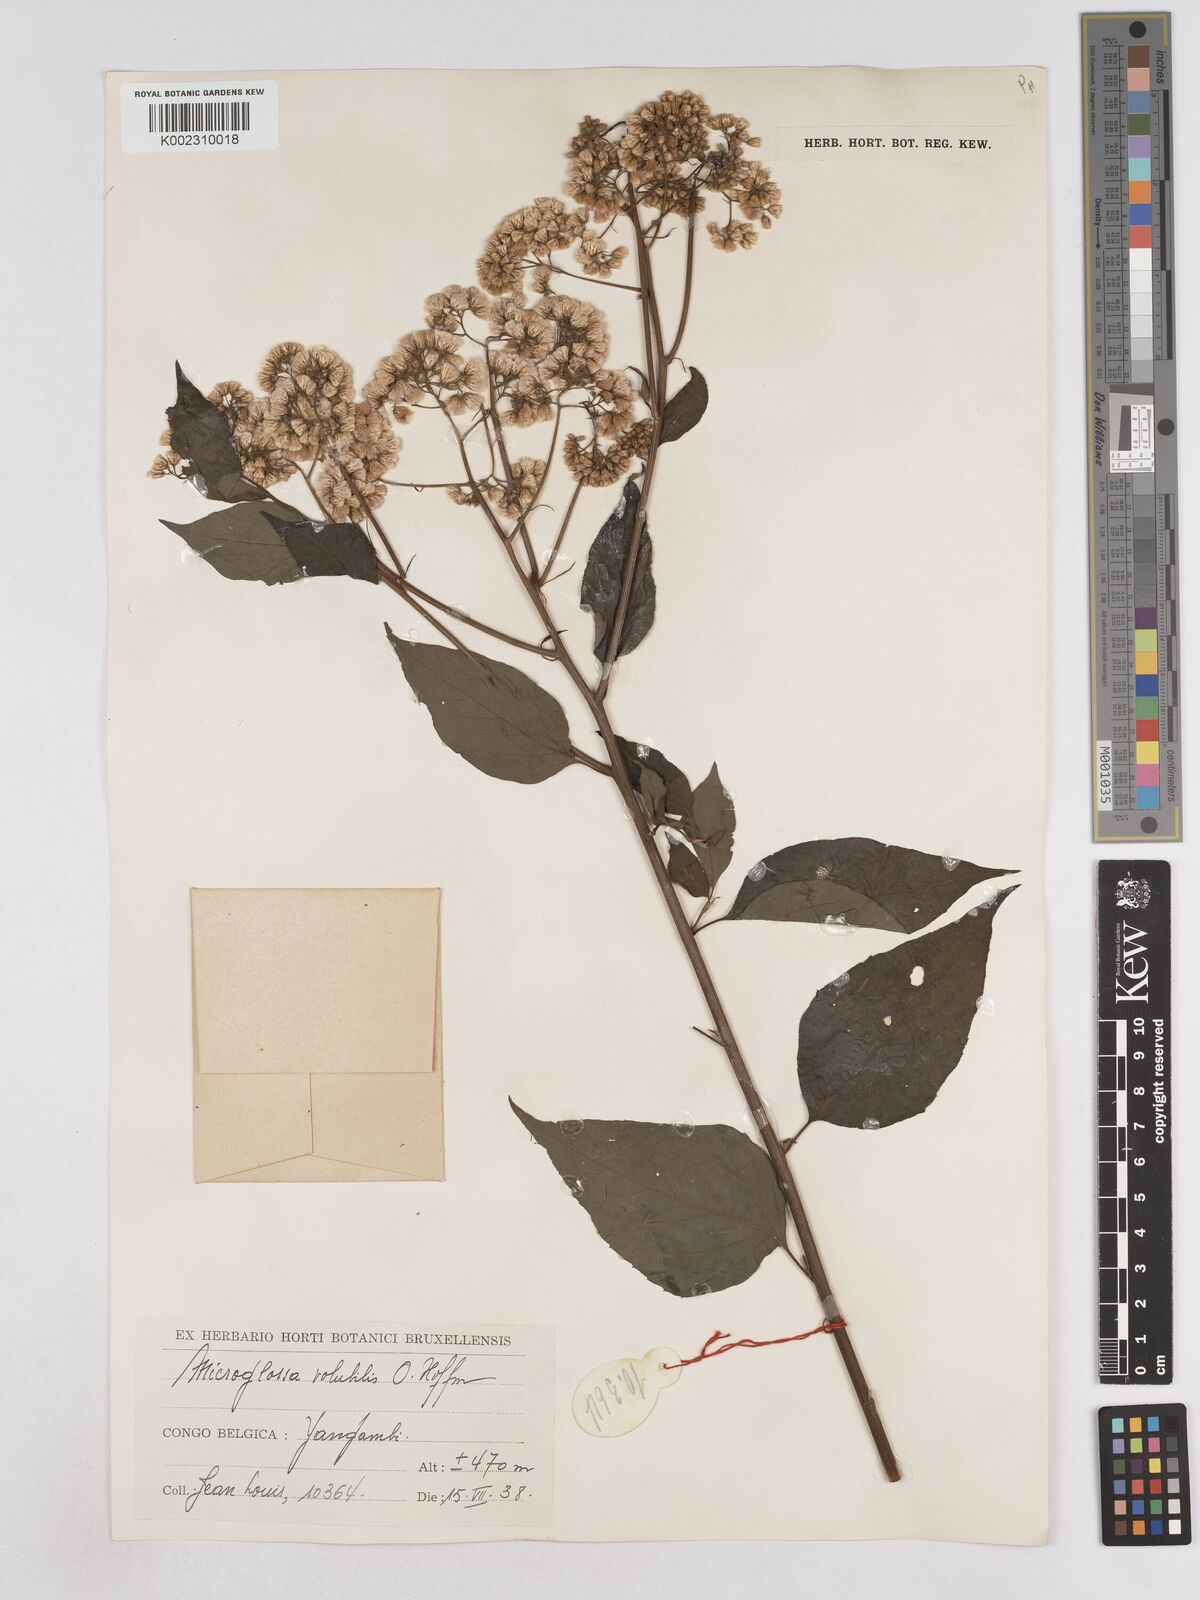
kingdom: Plantae
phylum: Tracheophyta
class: Magnoliopsida
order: Asterales
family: Asteraceae
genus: Microglossa
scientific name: Microglossa pyrifolia
